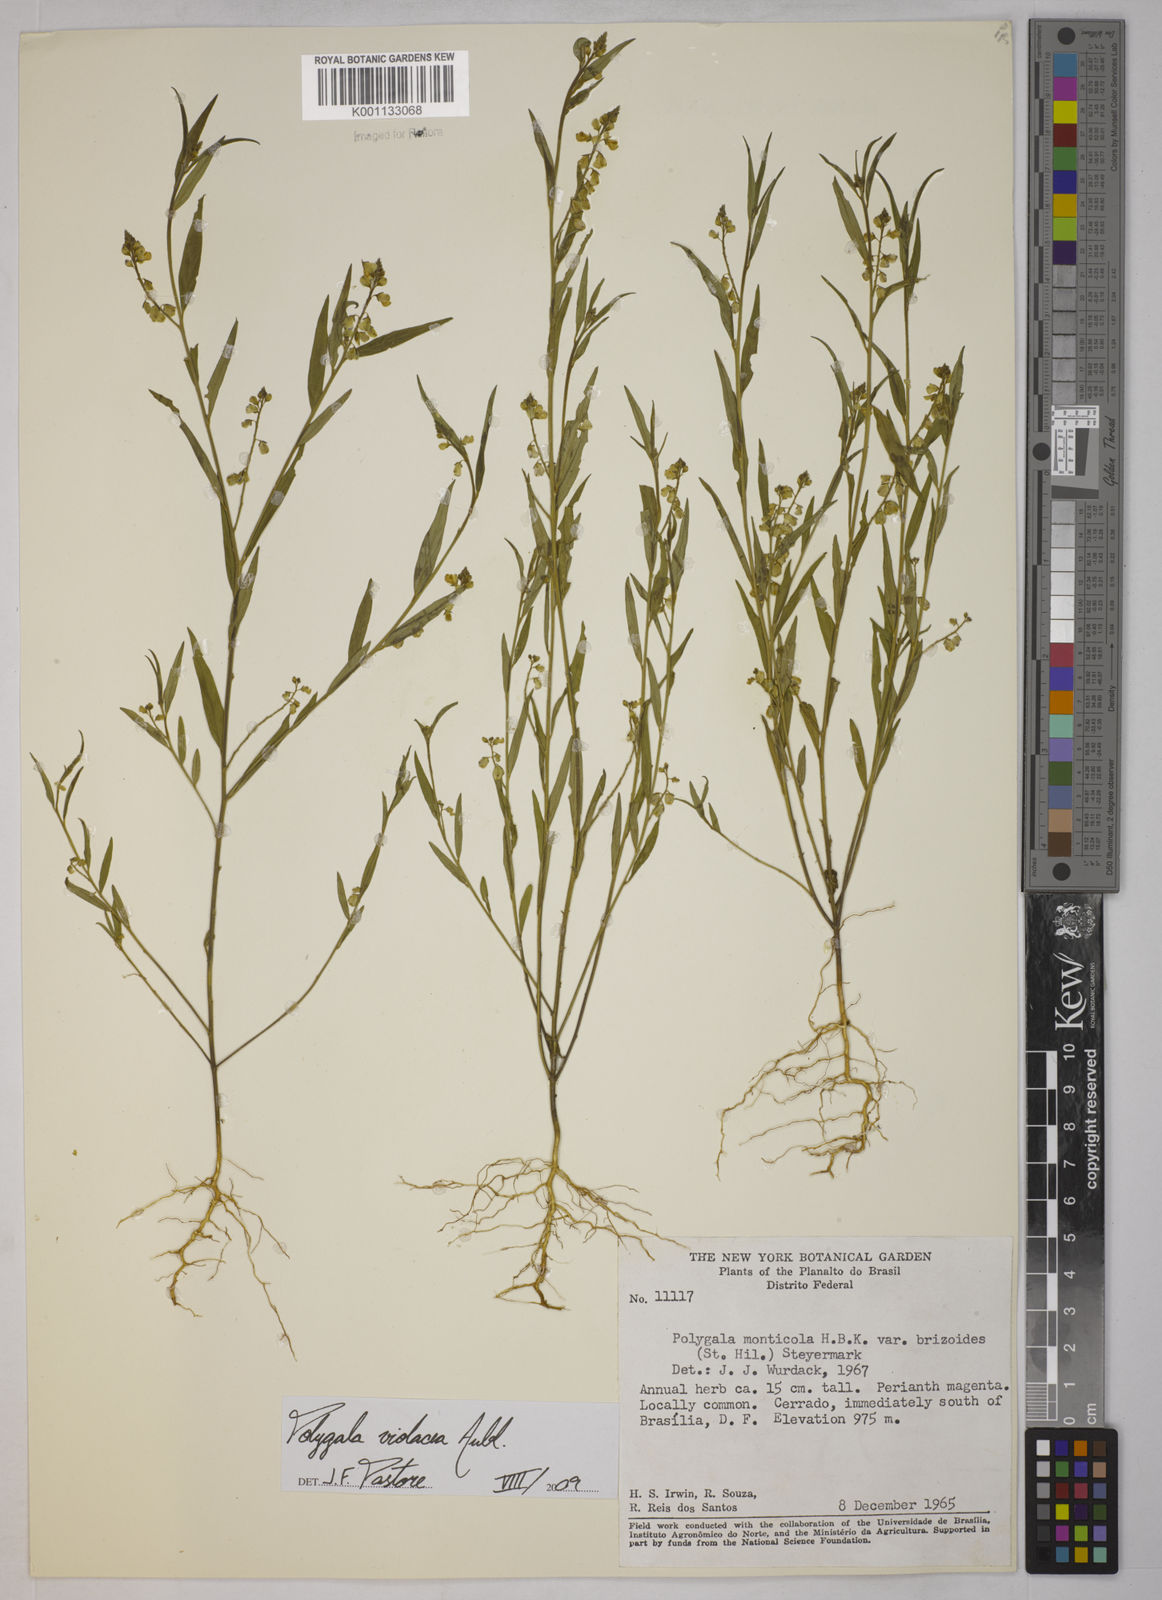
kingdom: Plantae
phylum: Tracheophyta
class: Magnoliopsida
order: Fabales
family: Polygalaceae
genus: Polygala
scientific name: Polygala
